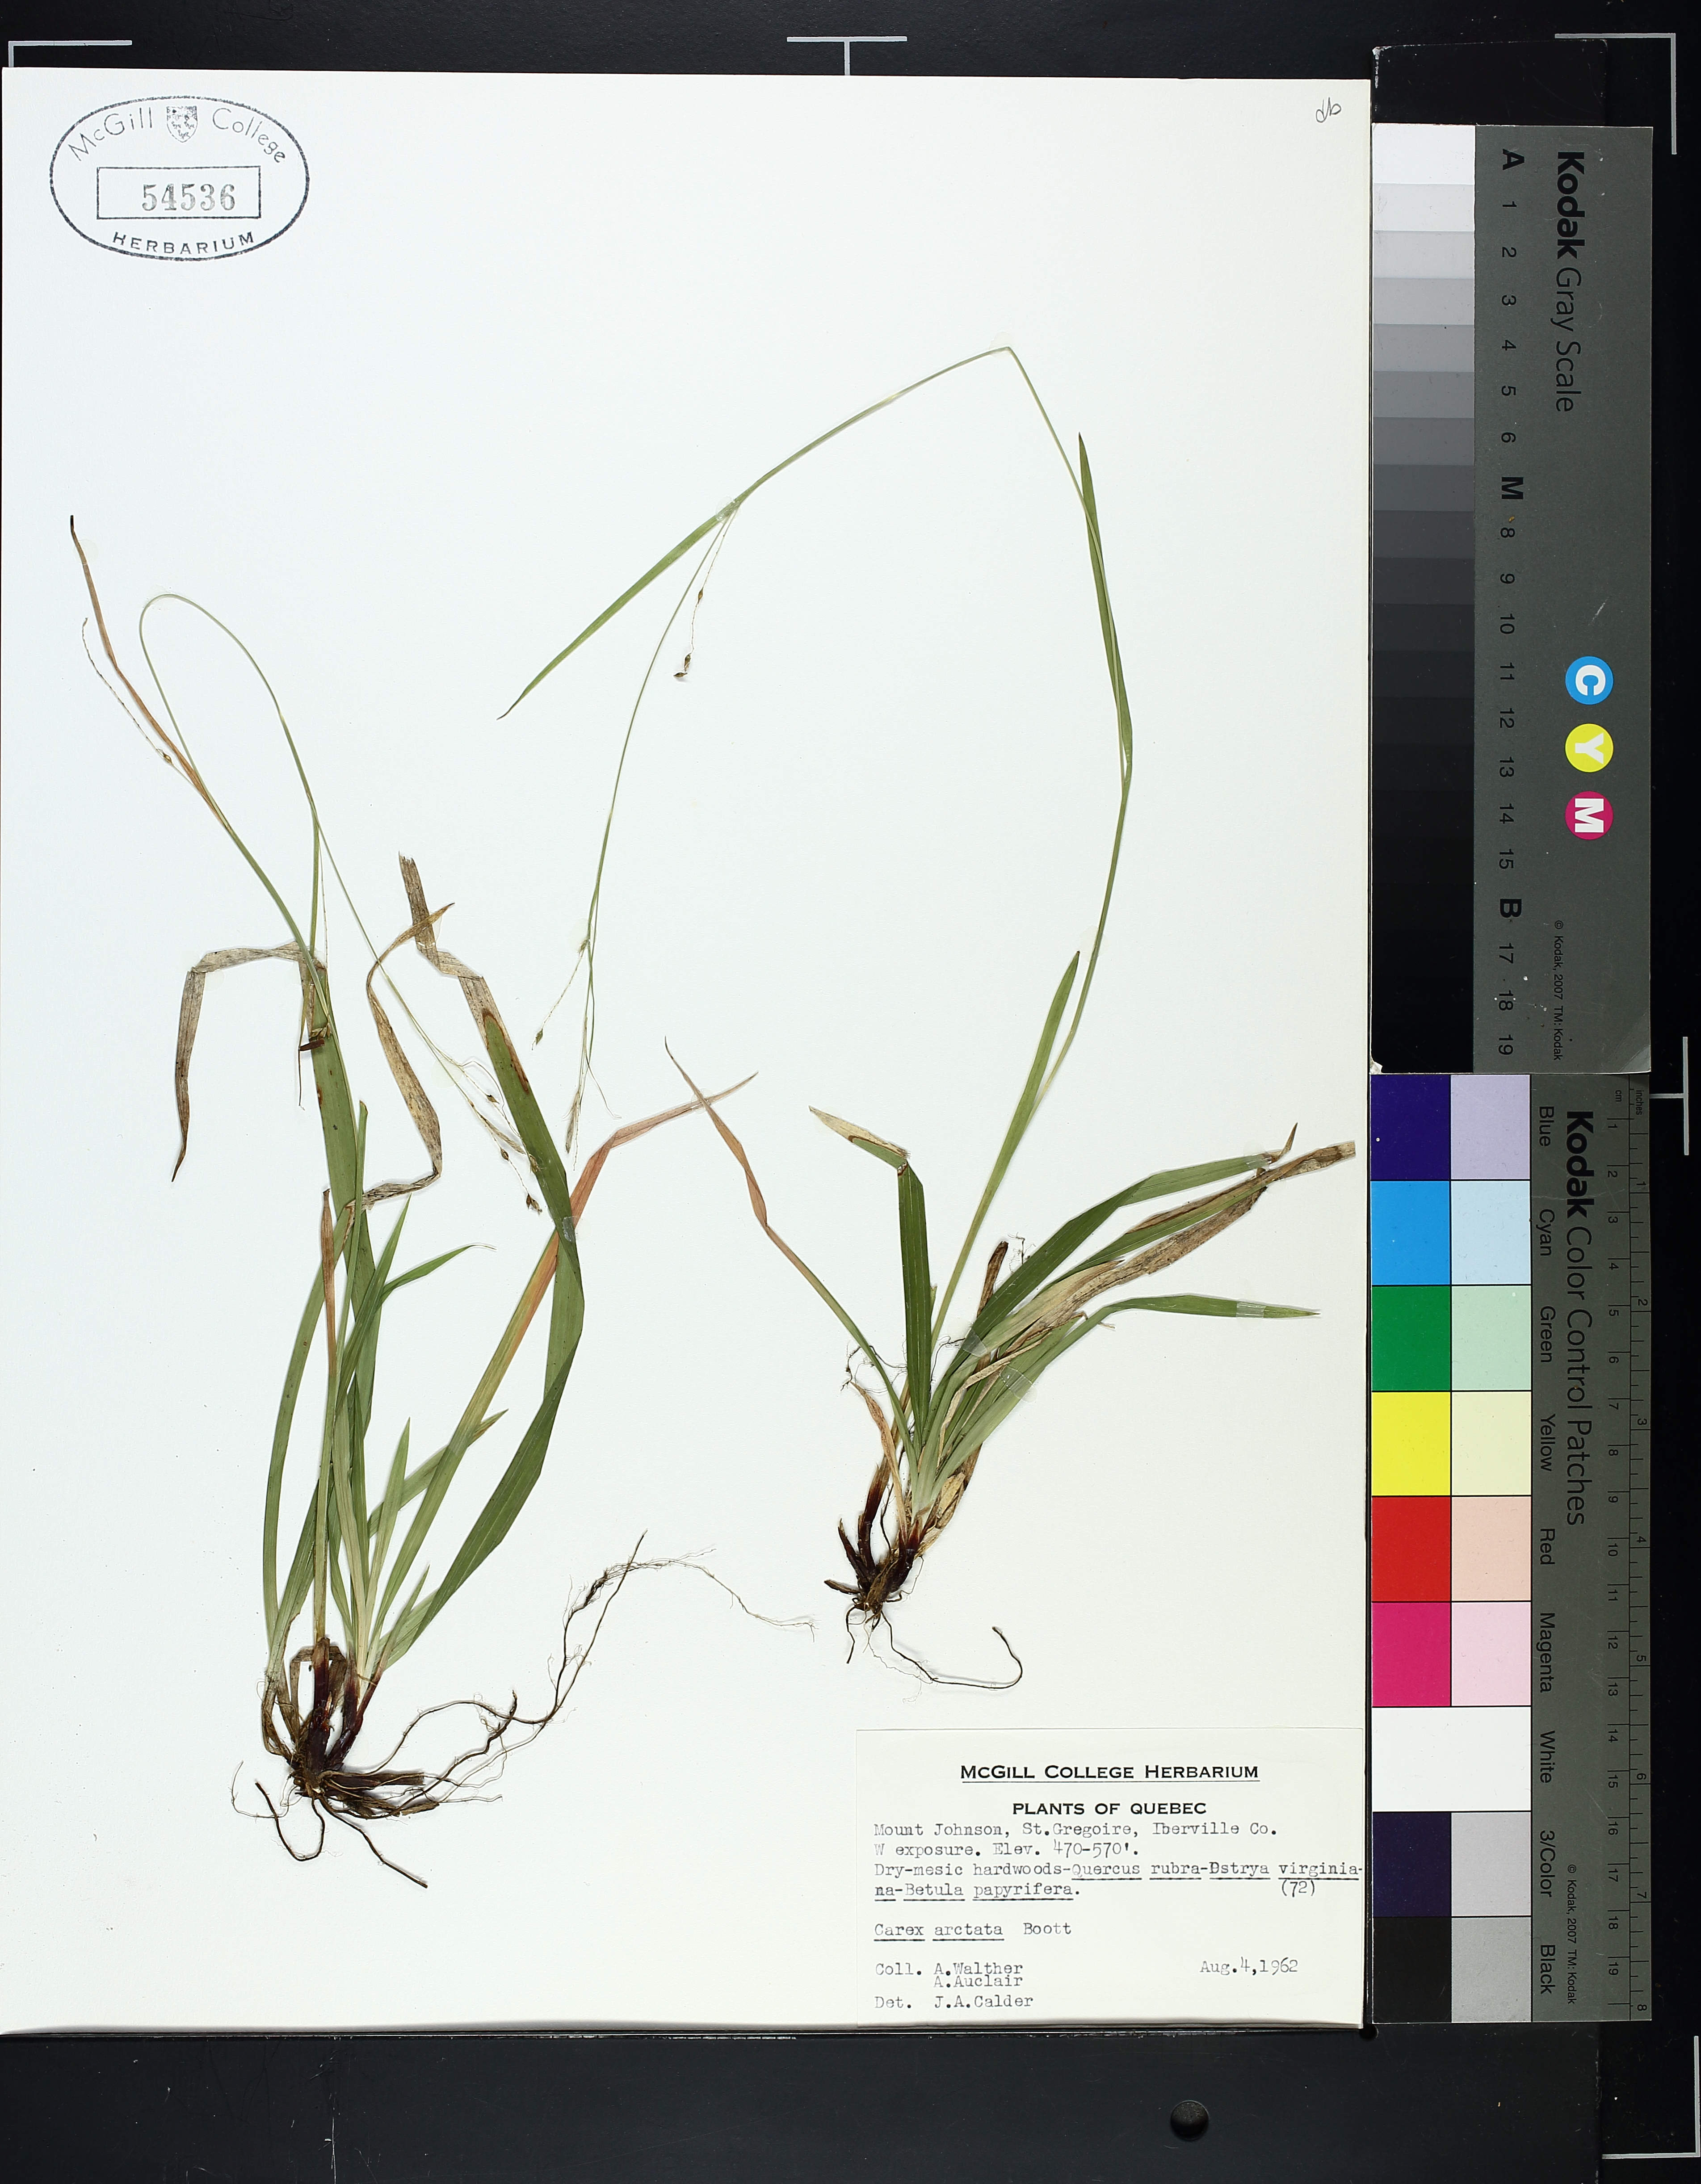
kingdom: Plantae
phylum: Tracheophyta
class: Liliopsida
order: Poales
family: Cyperaceae
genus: Carex
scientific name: Carex arctata
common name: Black sedge
